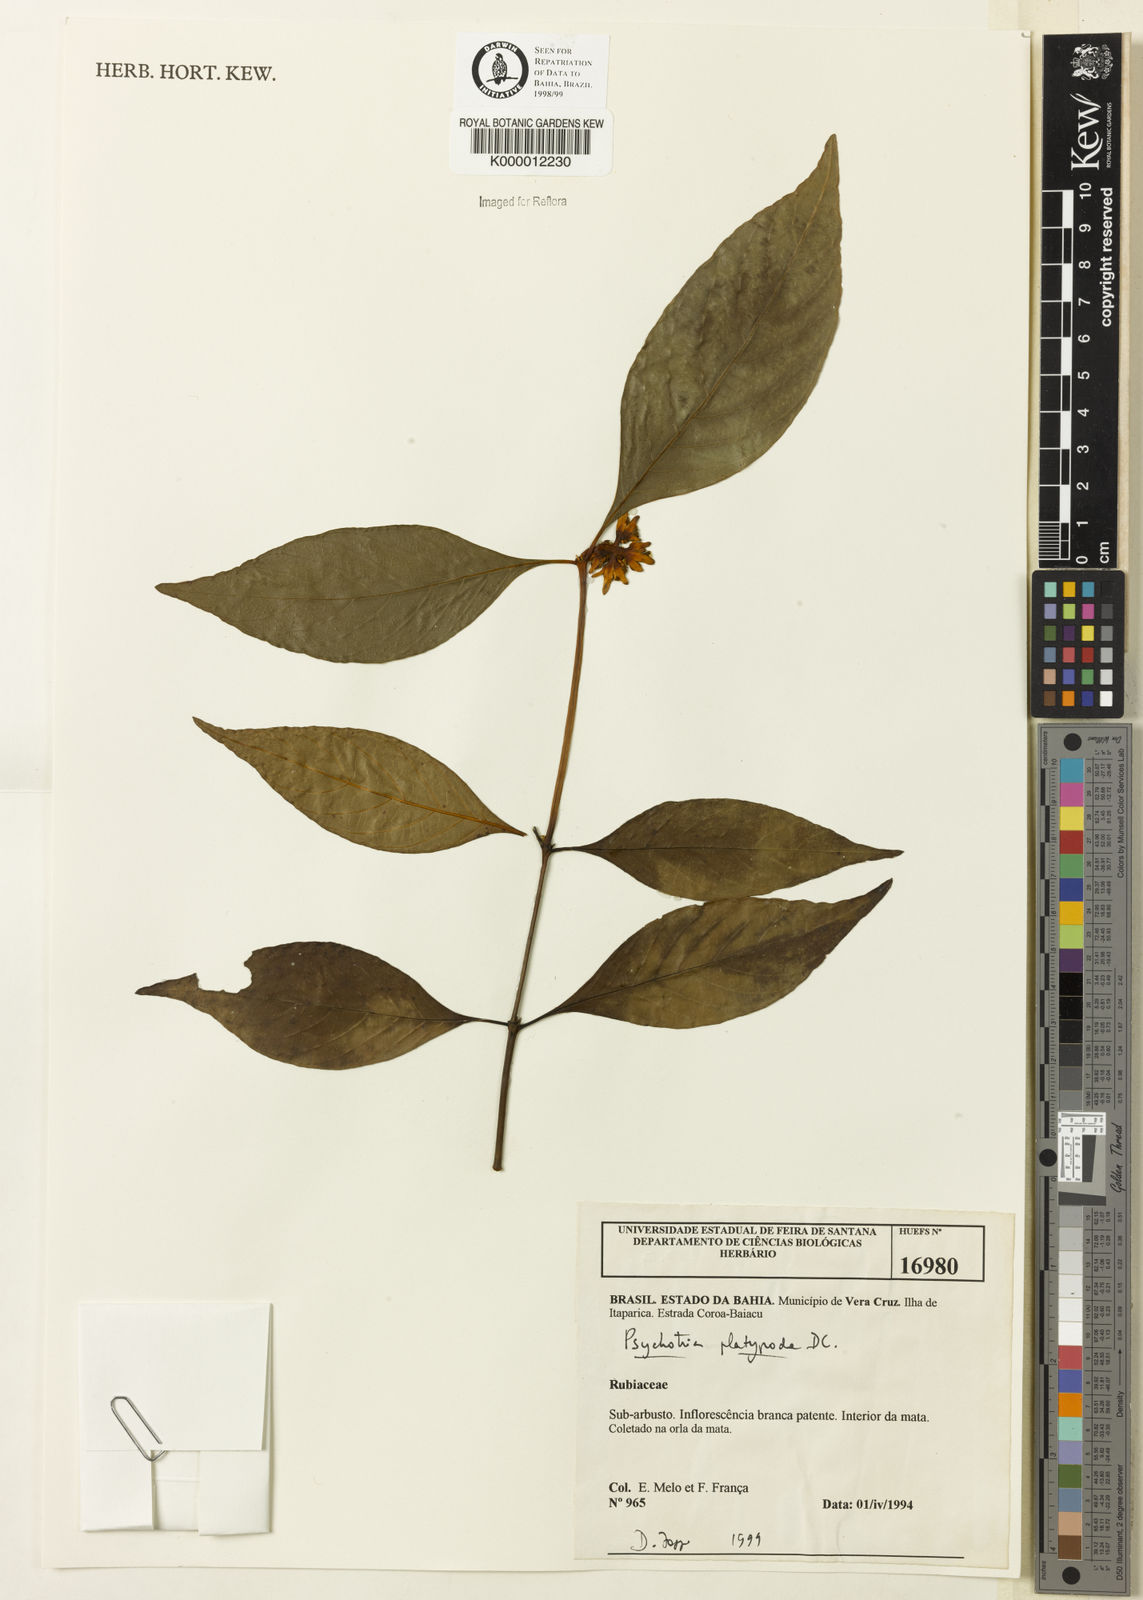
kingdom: Plantae
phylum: Tracheophyta
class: Magnoliopsida
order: Gentianales
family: Rubiaceae
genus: Palicourea
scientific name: Palicourea dichotoma
